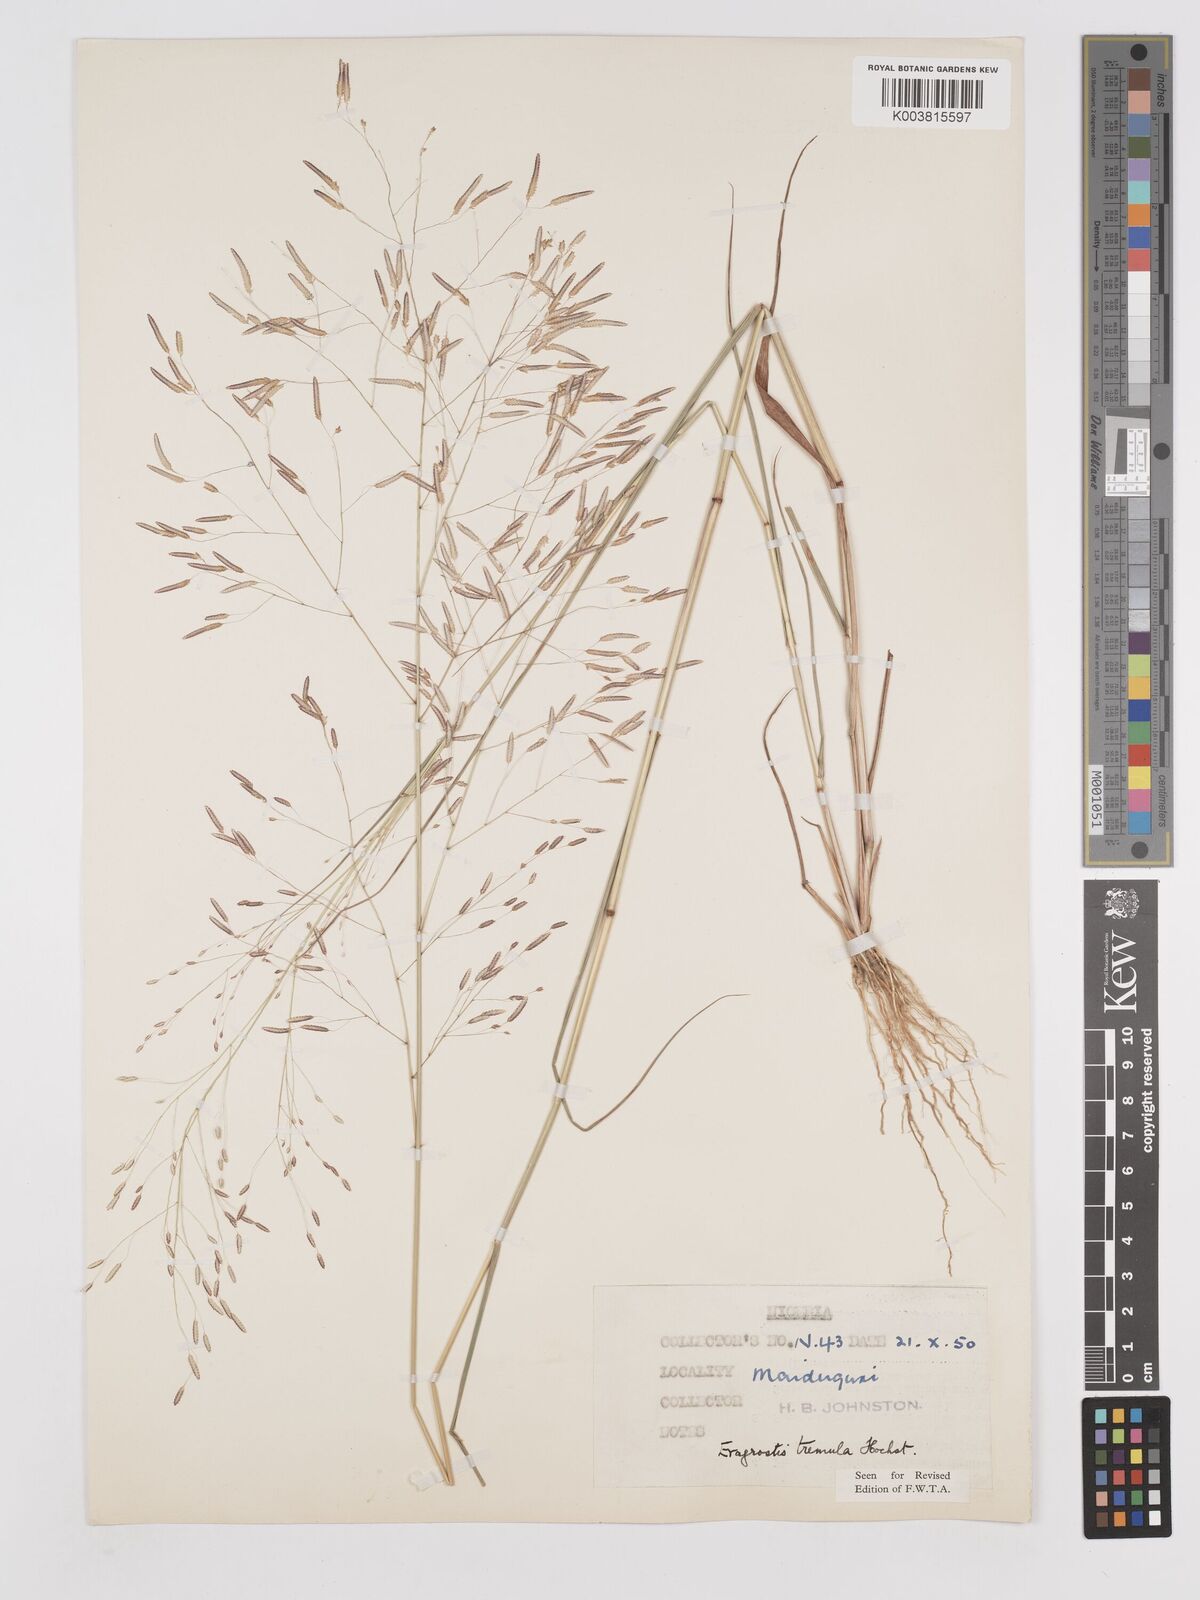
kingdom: Plantae
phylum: Tracheophyta
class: Liliopsida
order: Poales
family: Poaceae
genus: Eragrostis
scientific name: Eragrostis tremula
